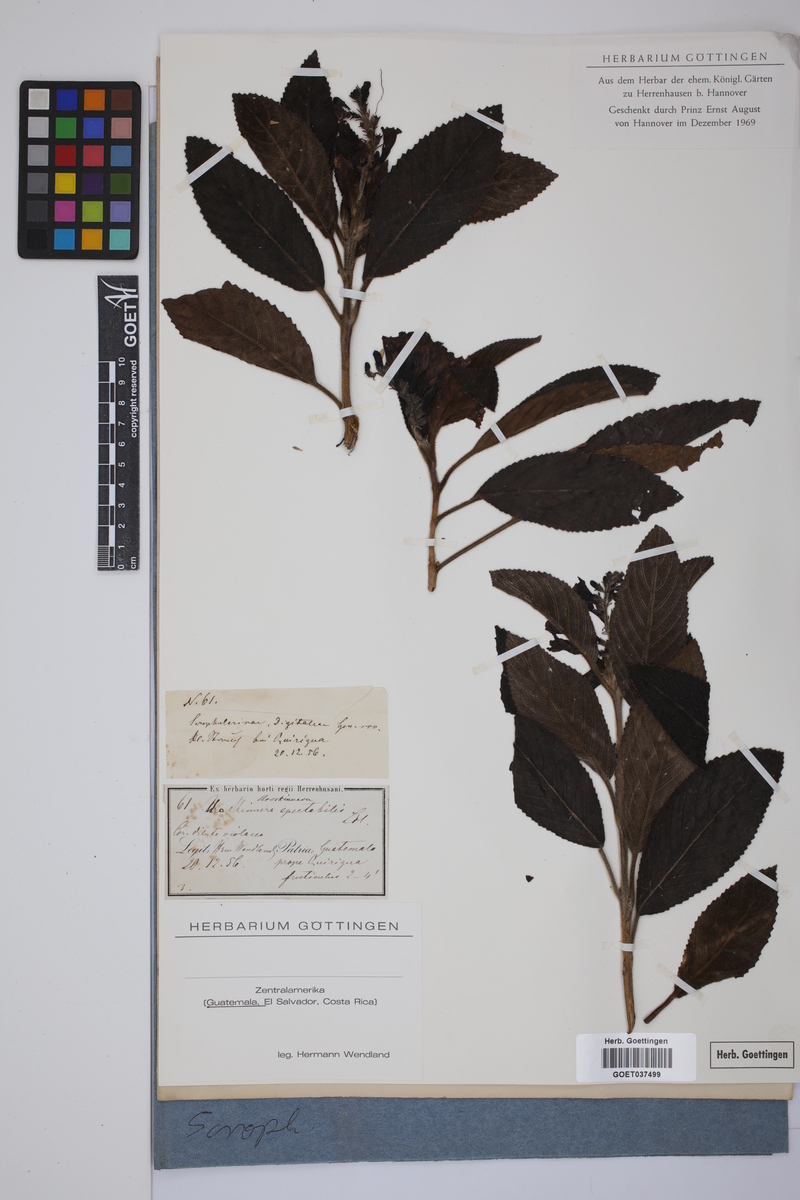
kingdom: Plantae
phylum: Tracheophyta
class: Magnoliopsida
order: Lamiales
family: Plantaginaceae
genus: Uroskinnera
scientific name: Uroskinnera spectabilis
